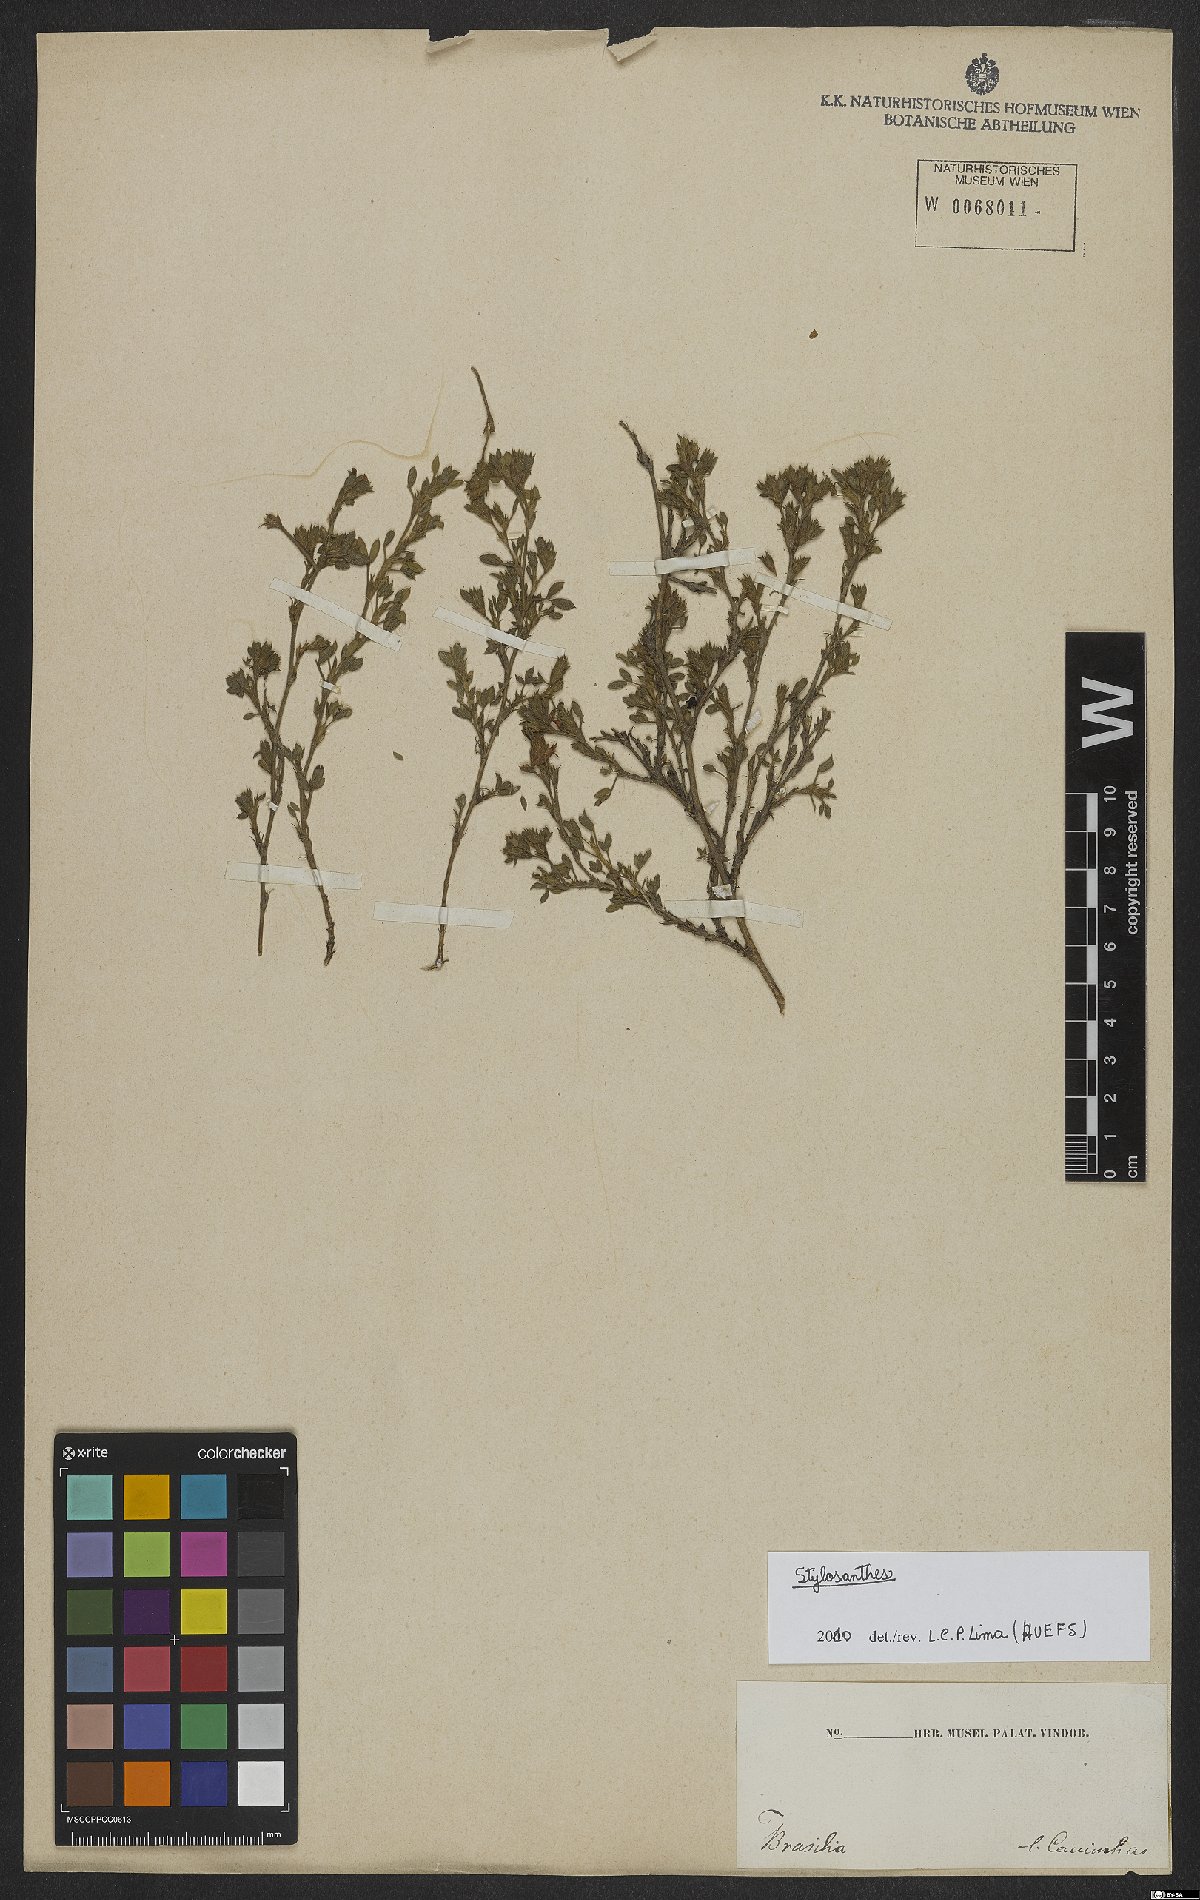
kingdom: Plantae
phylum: Tracheophyta
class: Magnoliopsida
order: Fabales
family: Fabaceae
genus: Stylosanthes
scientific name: Stylosanthes
